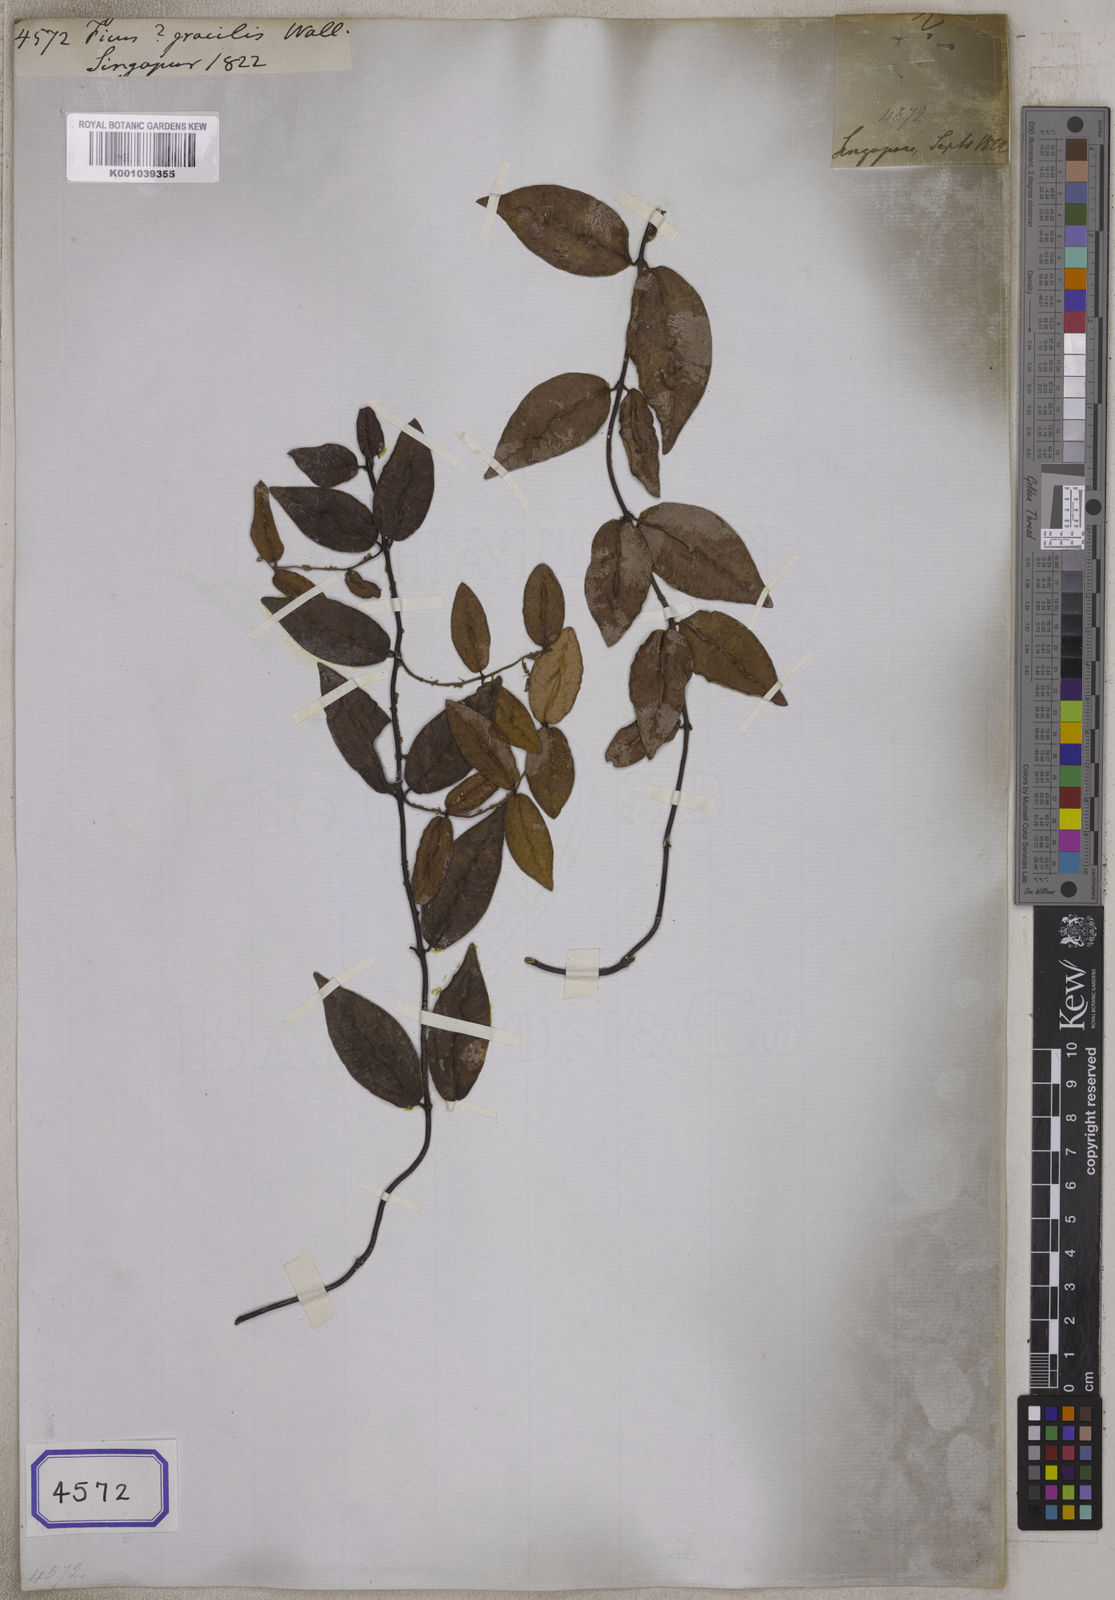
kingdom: Plantae
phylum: Tracheophyta
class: Magnoliopsida
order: Rosales
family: Moraceae
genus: Ficus
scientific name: Ficus
